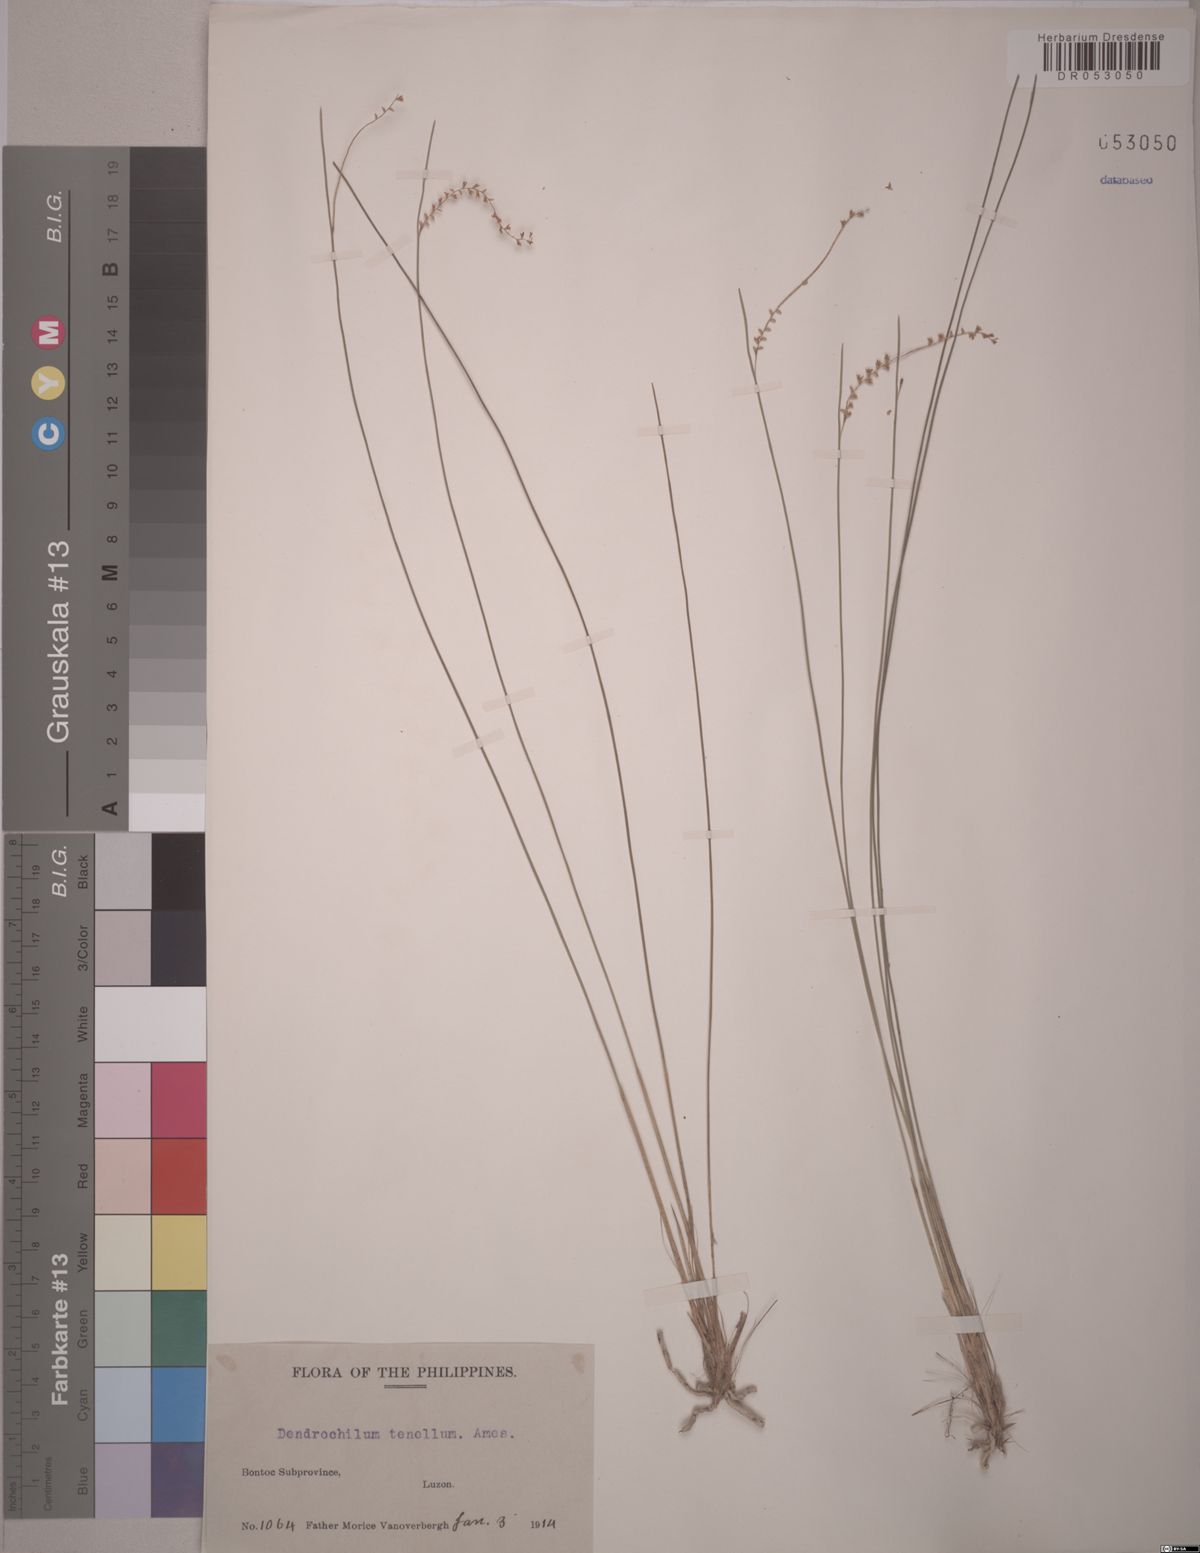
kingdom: Plantae
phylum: Tracheophyta
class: Liliopsida
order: Asparagales
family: Orchidaceae
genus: Coelogyne
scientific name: Coelogyne tenella
